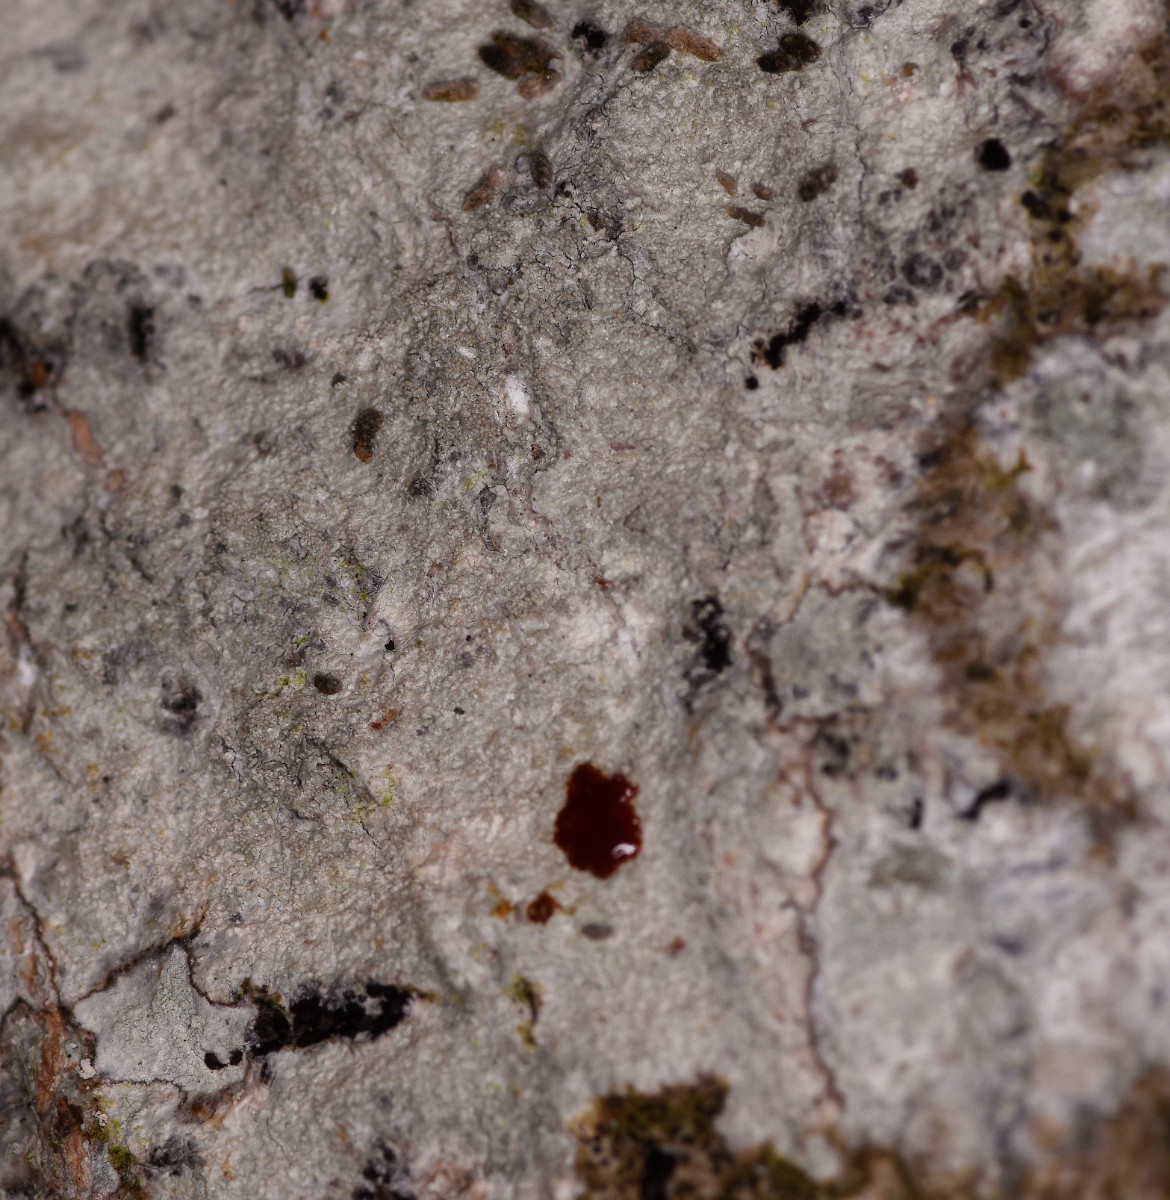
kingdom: Fungi
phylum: Ascomycota
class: Lecanoromycetes
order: Pertusariales
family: Pertusariaceae
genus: Pertusaria
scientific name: Pertusaria coccodes
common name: skurvet prikvortelav
